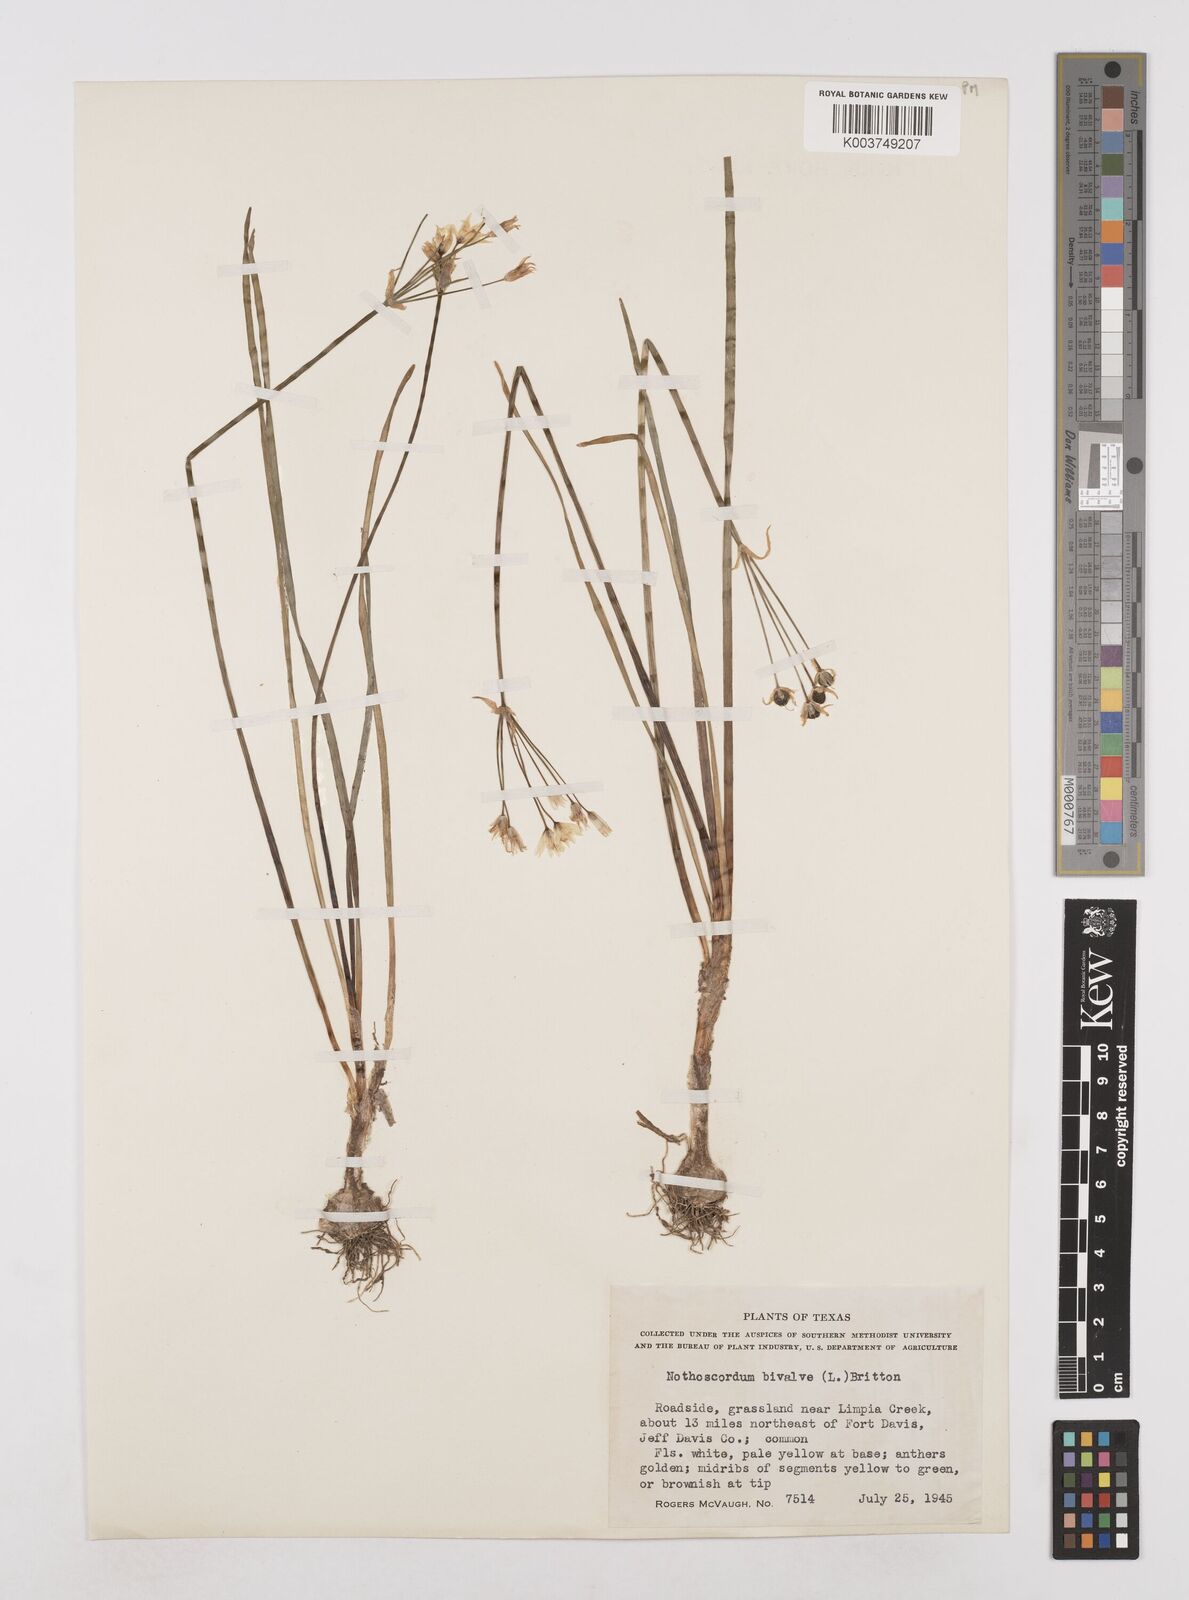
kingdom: Plantae
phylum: Tracheophyta
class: Liliopsida
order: Asparagales
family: Amaryllidaceae
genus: Nothoscordum
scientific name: Nothoscordum bivalve
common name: Crow-poison
